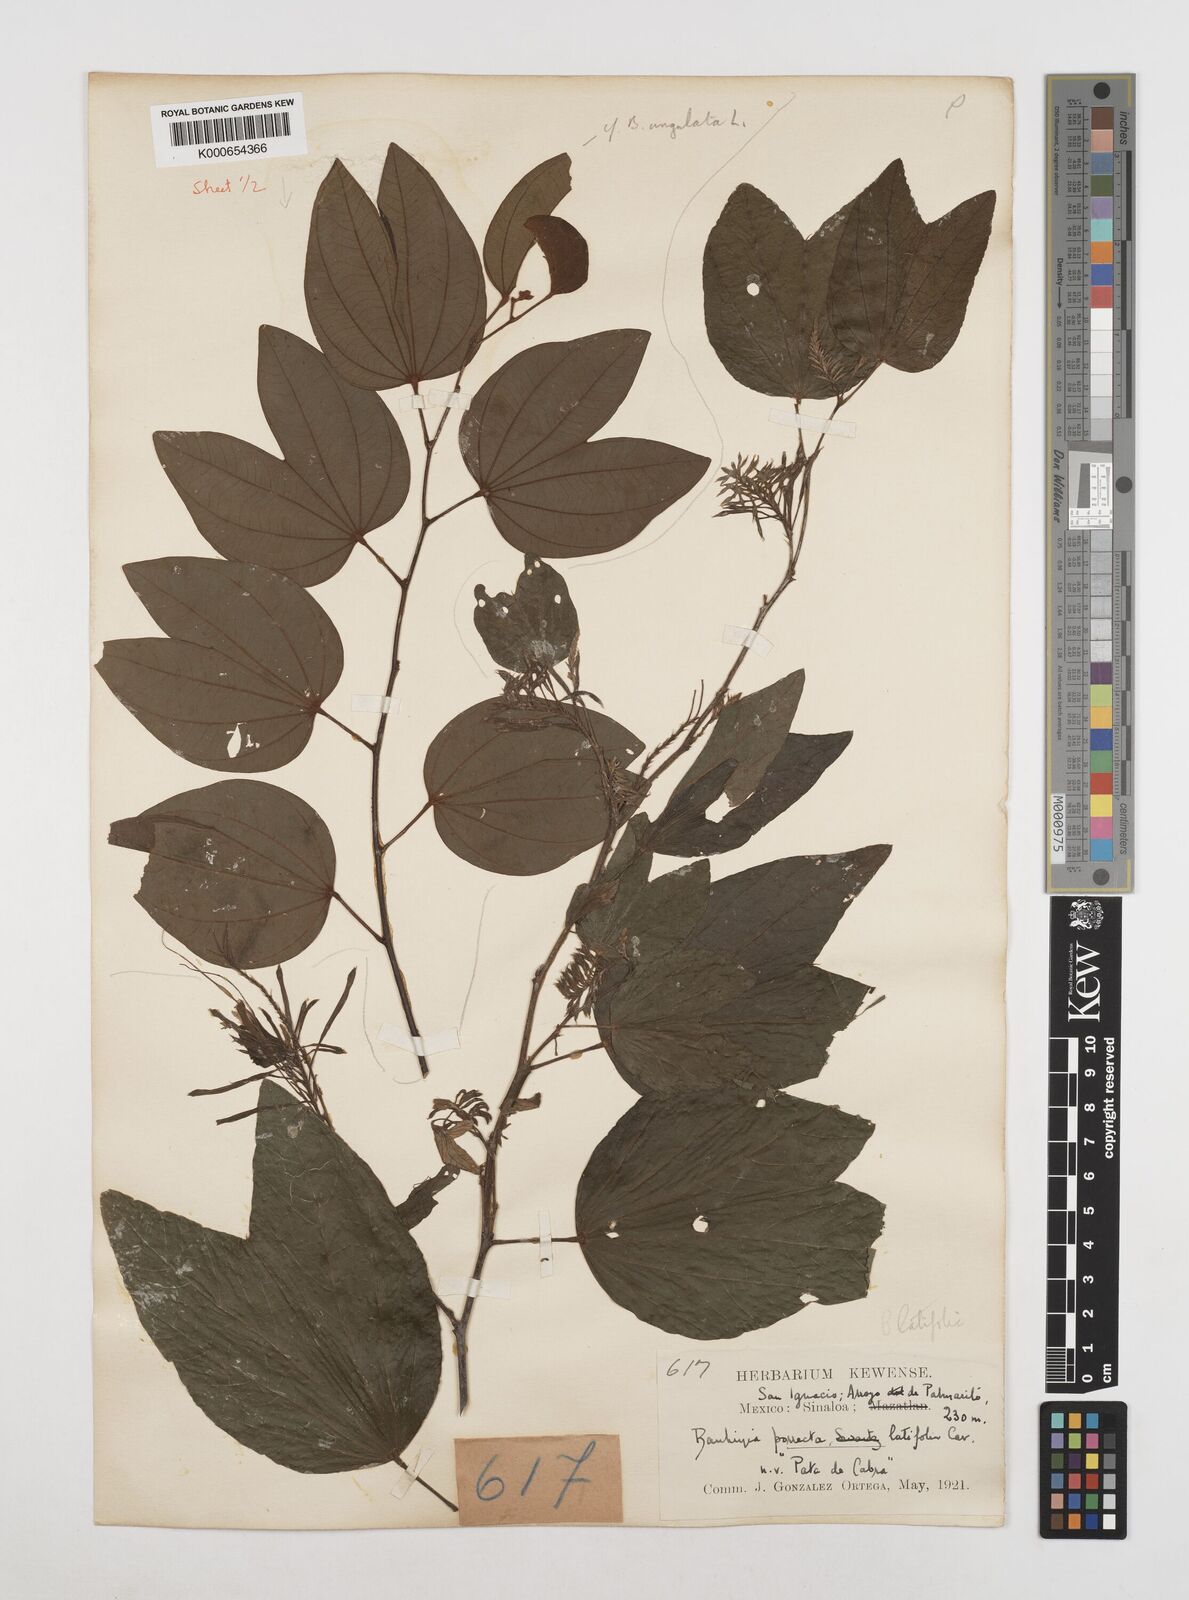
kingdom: Plantae
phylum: Tracheophyta
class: Magnoliopsida
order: Fabales
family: Fabaceae
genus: Bauhinia
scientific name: Bauhinia ungulata
